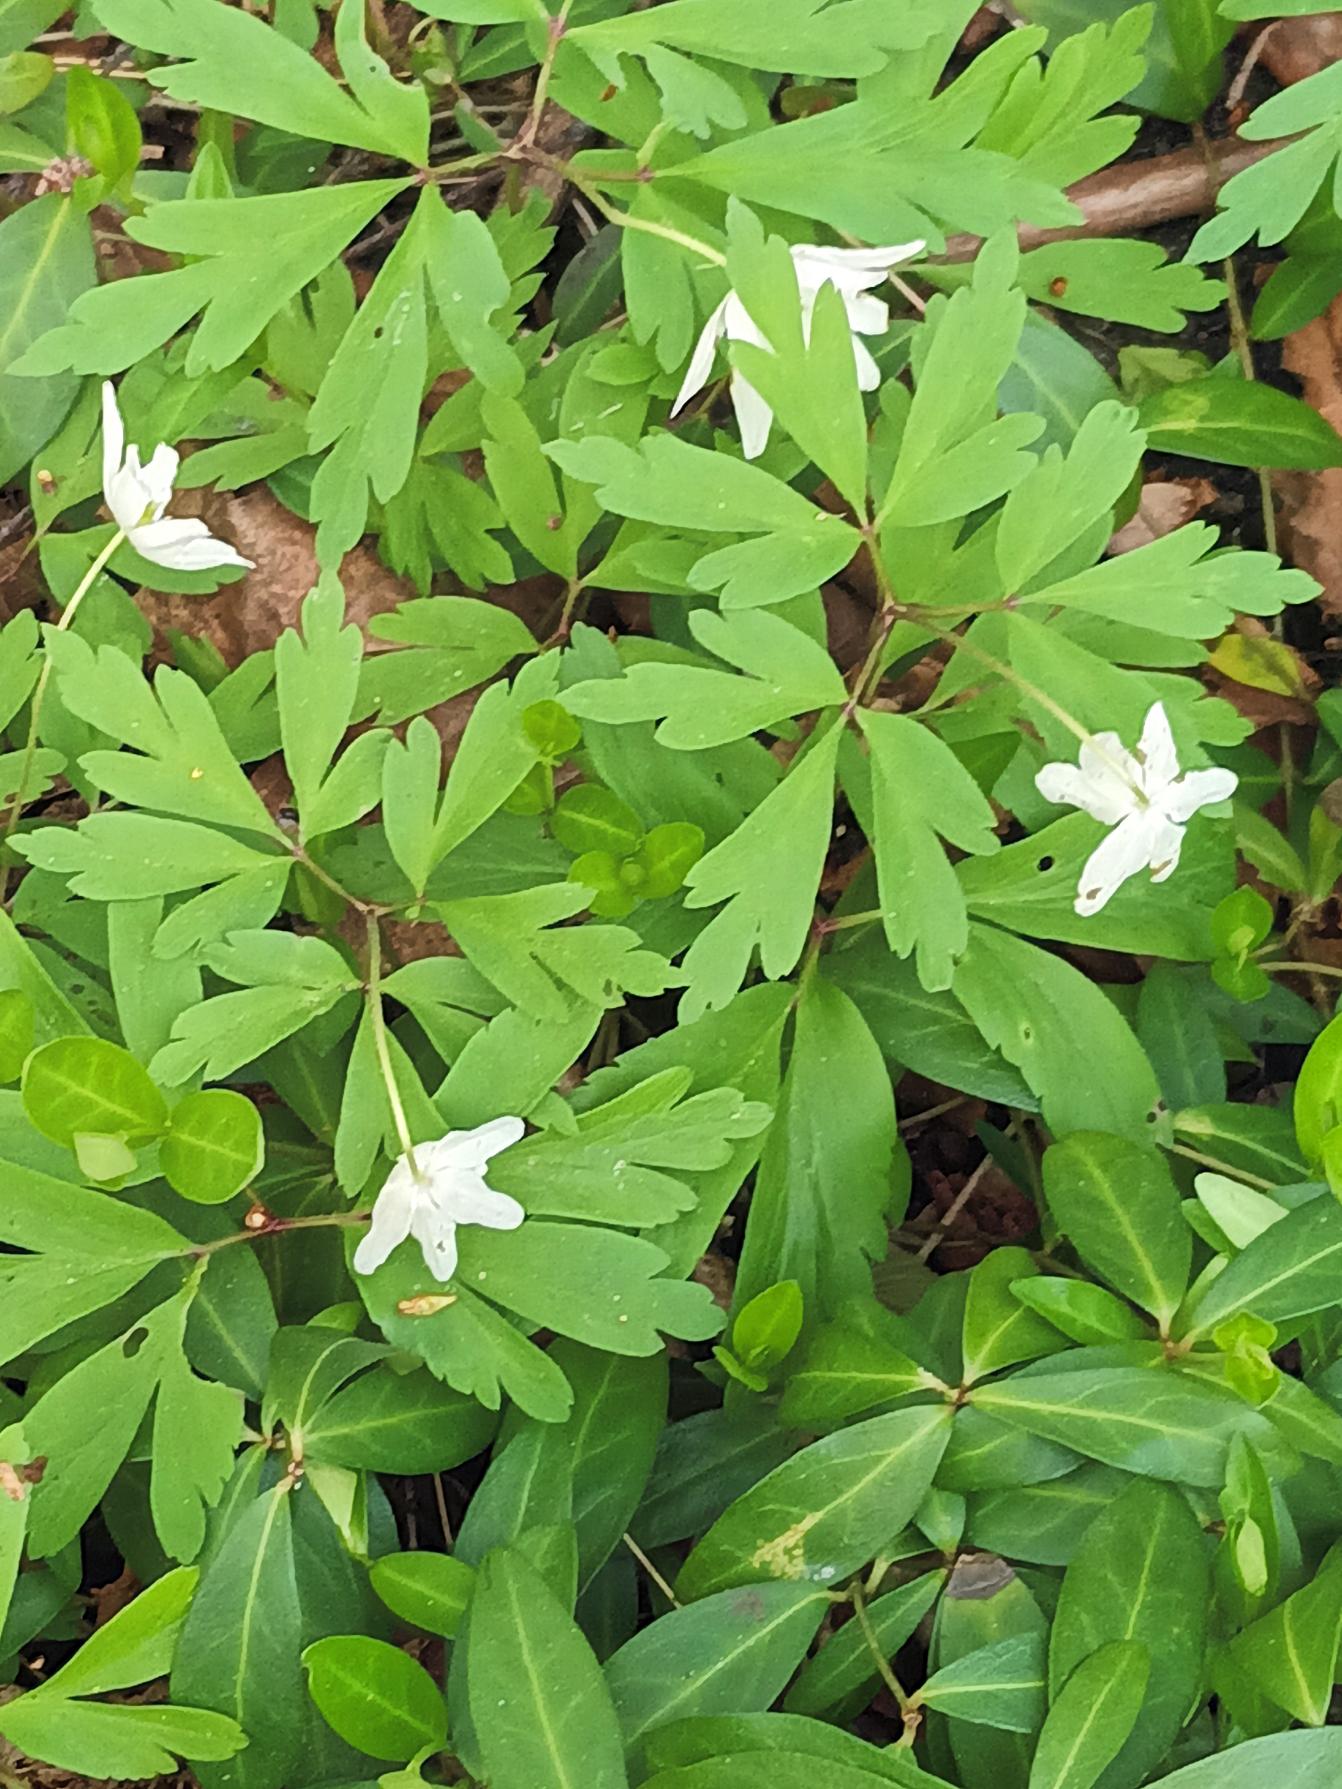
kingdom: Plantae
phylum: Tracheophyta
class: Magnoliopsida
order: Ranunculales
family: Ranunculaceae
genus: Anemone
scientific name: Anemone nemorosa
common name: Hvid anemone
